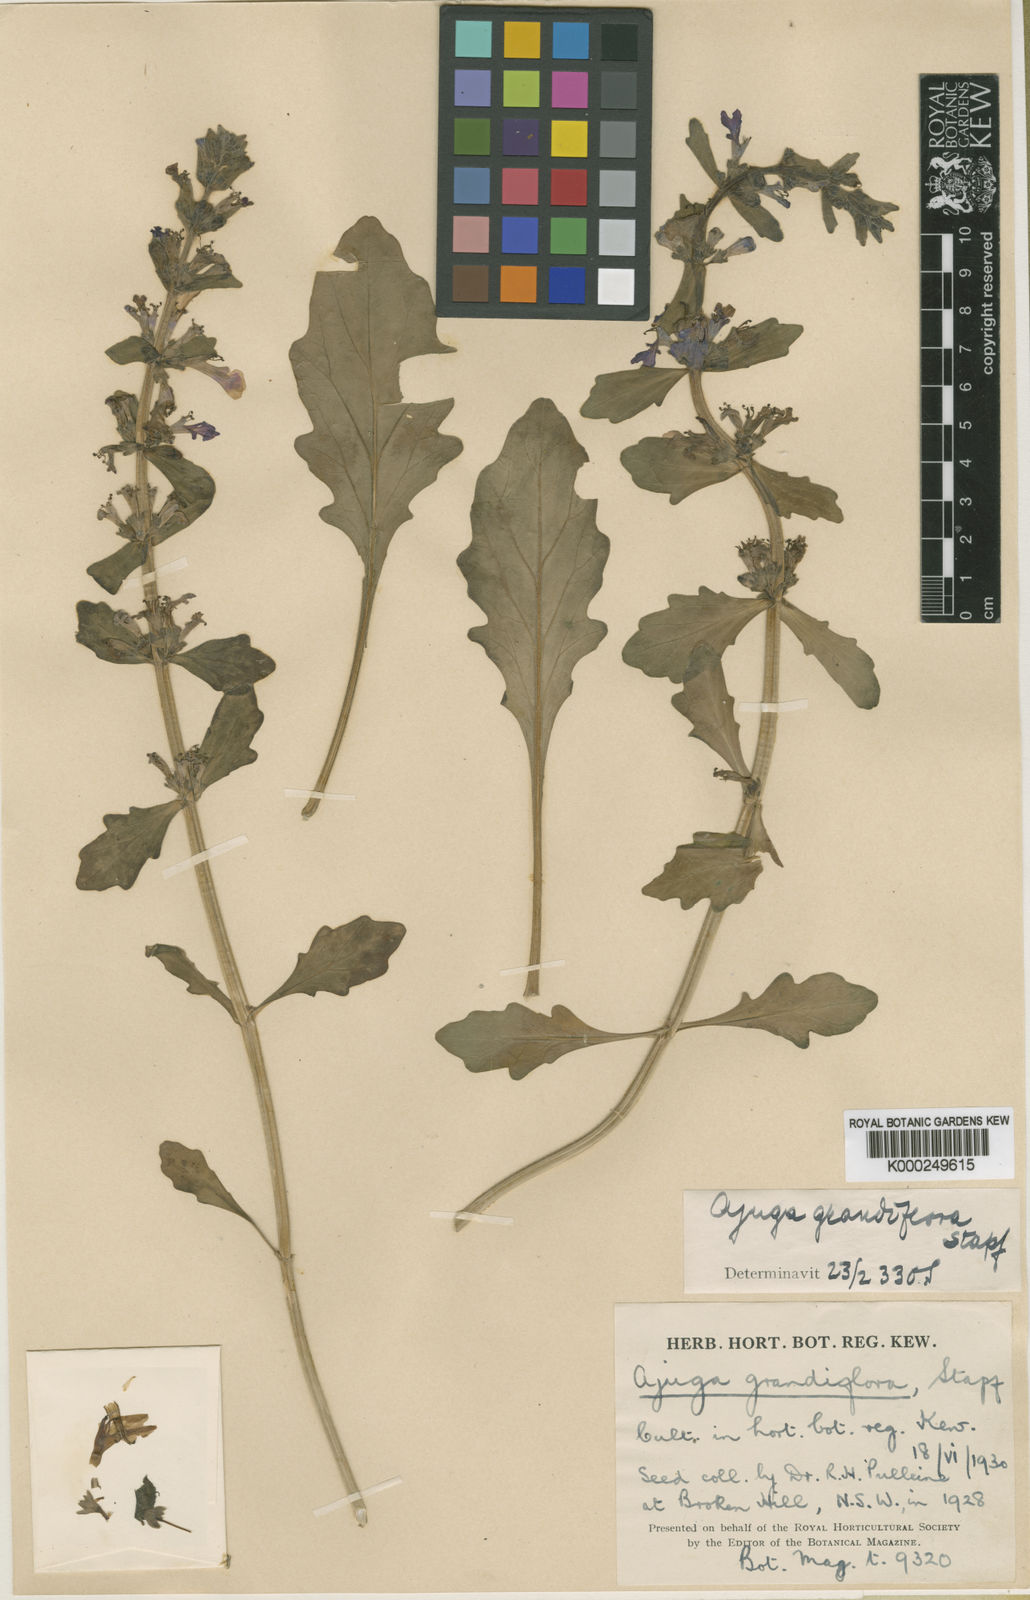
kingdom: Plantae
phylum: Tracheophyta
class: Magnoliopsida
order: Lamiales
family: Lamiaceae
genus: Ajuga
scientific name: Ajuga grandiflora
